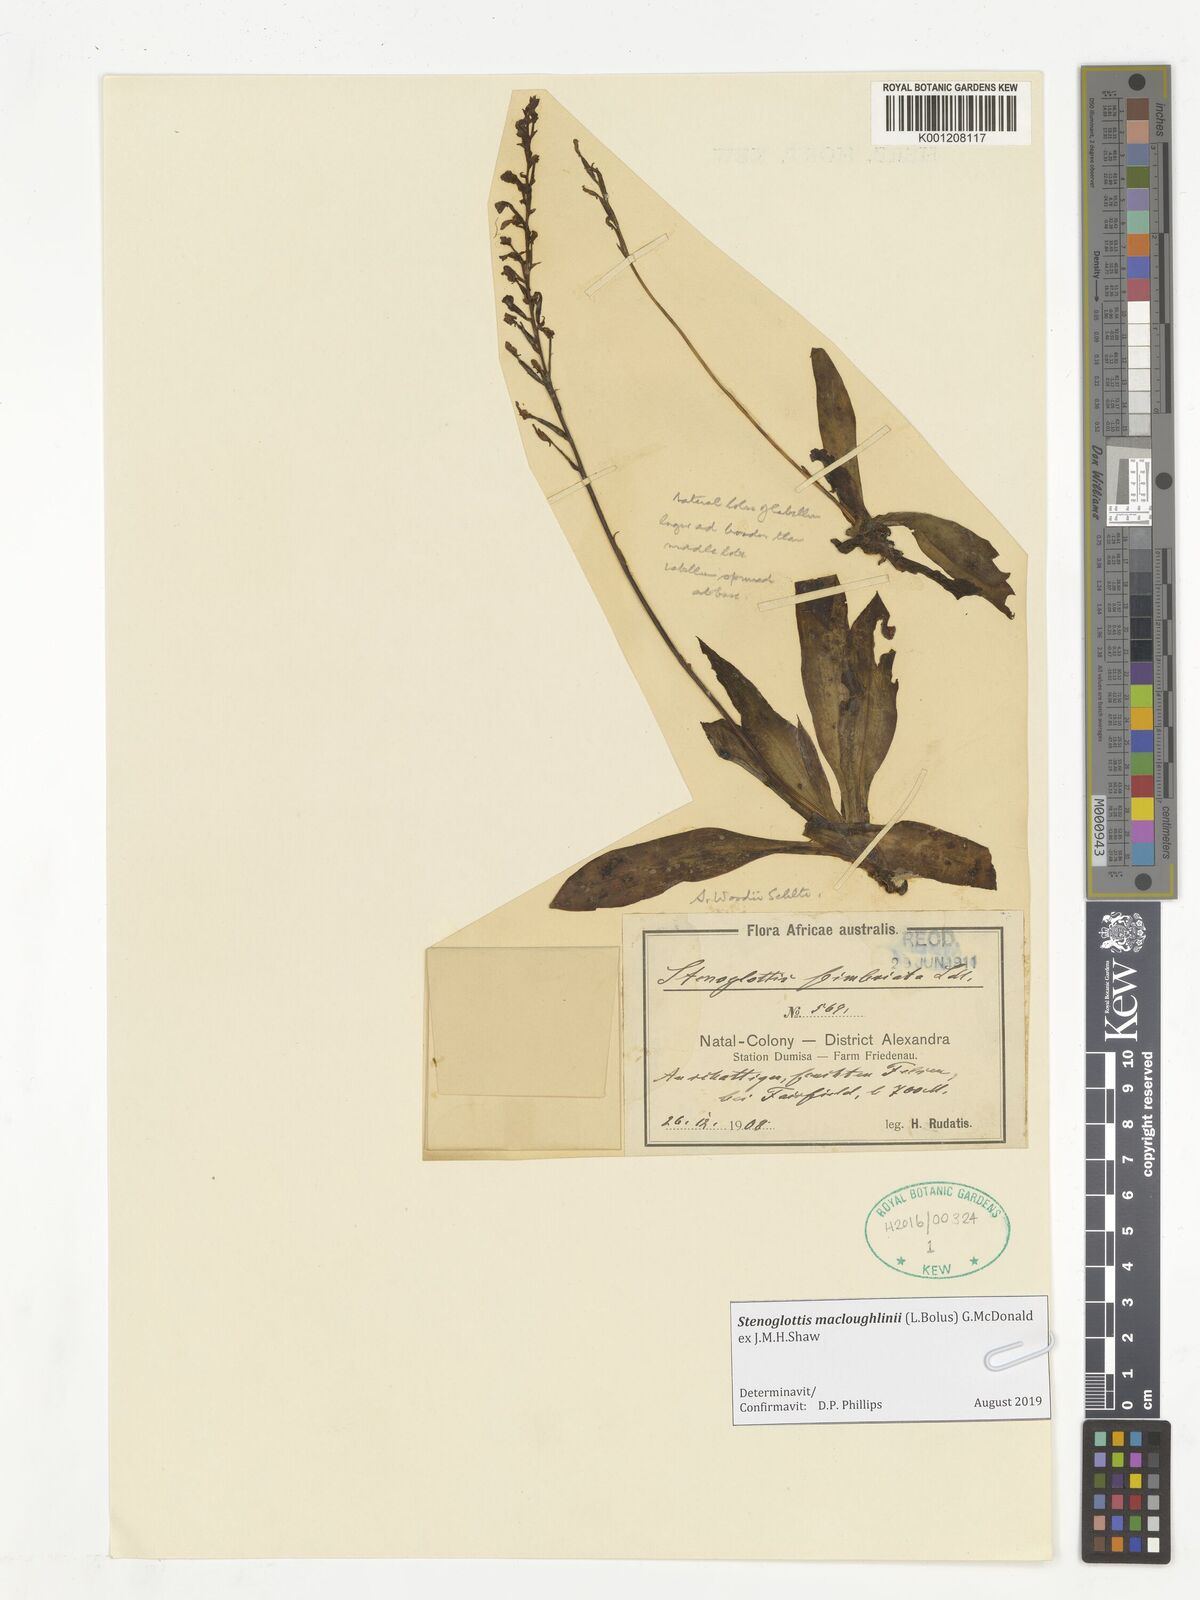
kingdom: Plantae
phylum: Tracheophyta
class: Liliopsida
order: Asparagales
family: Orchidaceae
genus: Stenoglottis
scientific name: Stenoglottis macloughlinii
